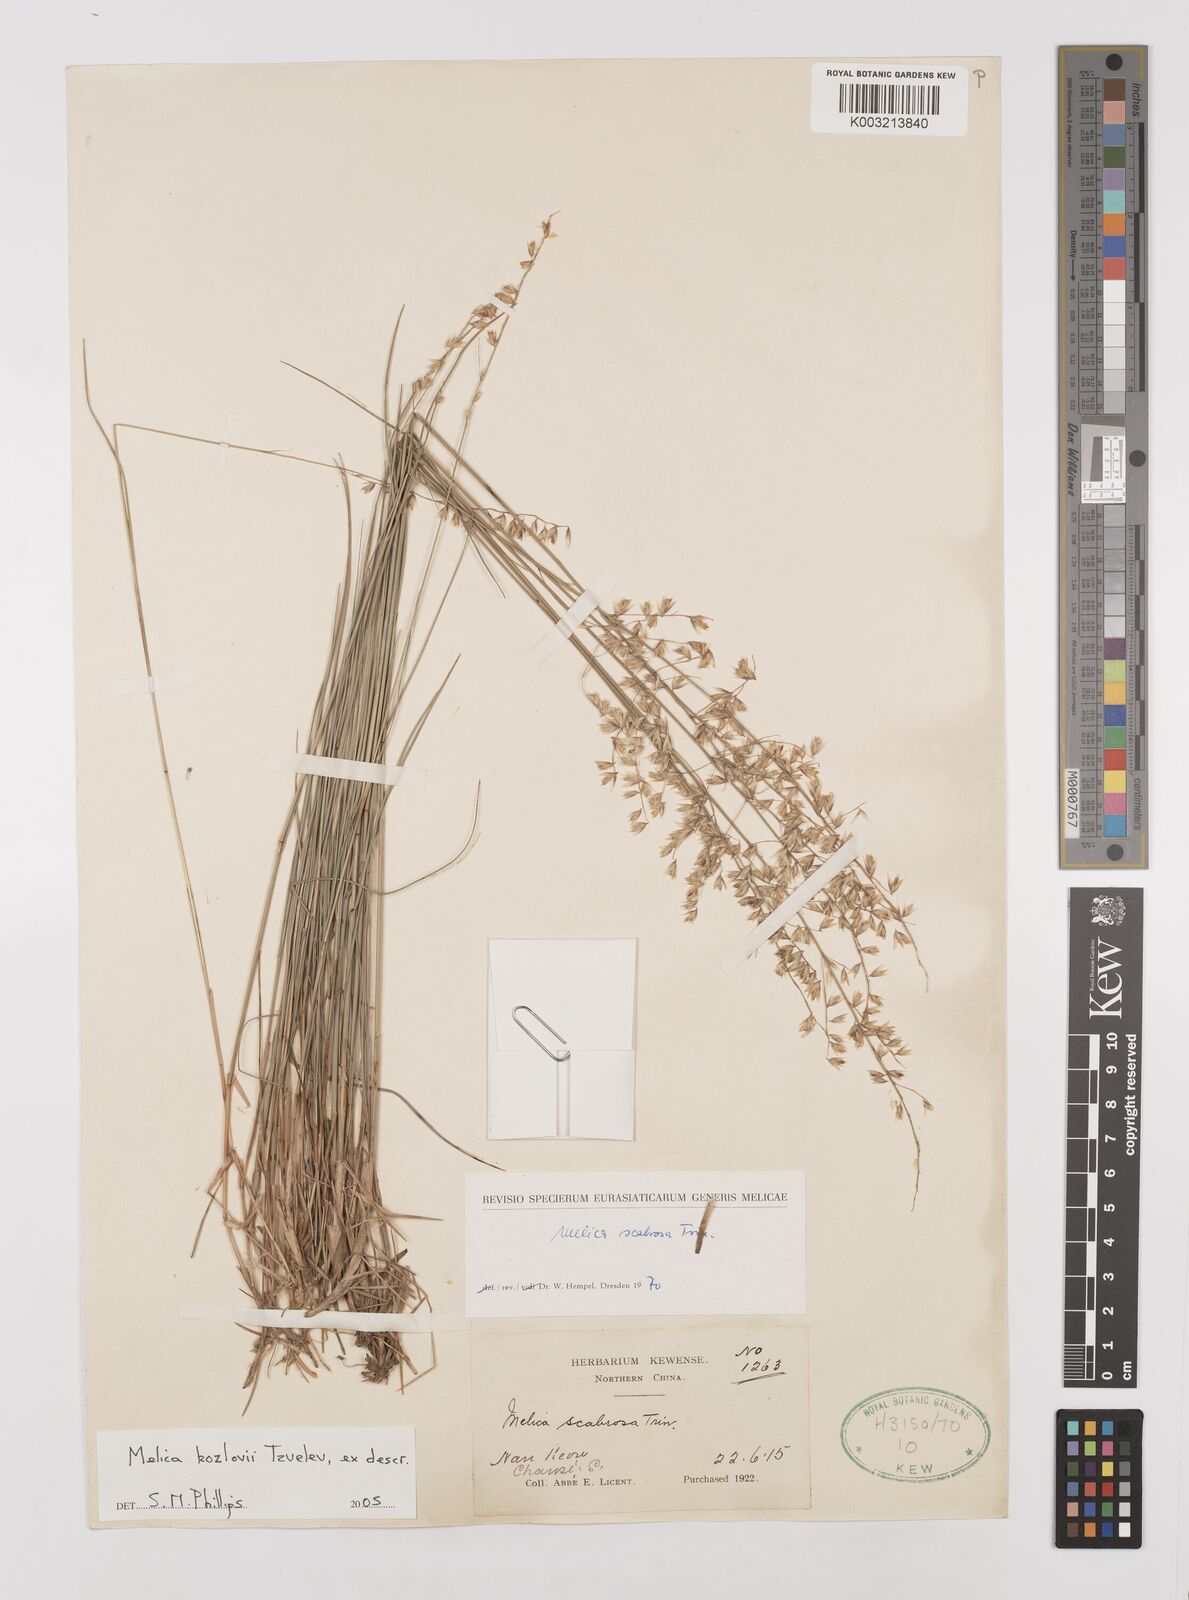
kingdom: Plantae
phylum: Tracheophyta
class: Liliopsida
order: Poales
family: Poaceae
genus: Melica
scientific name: Melica kozlovii
